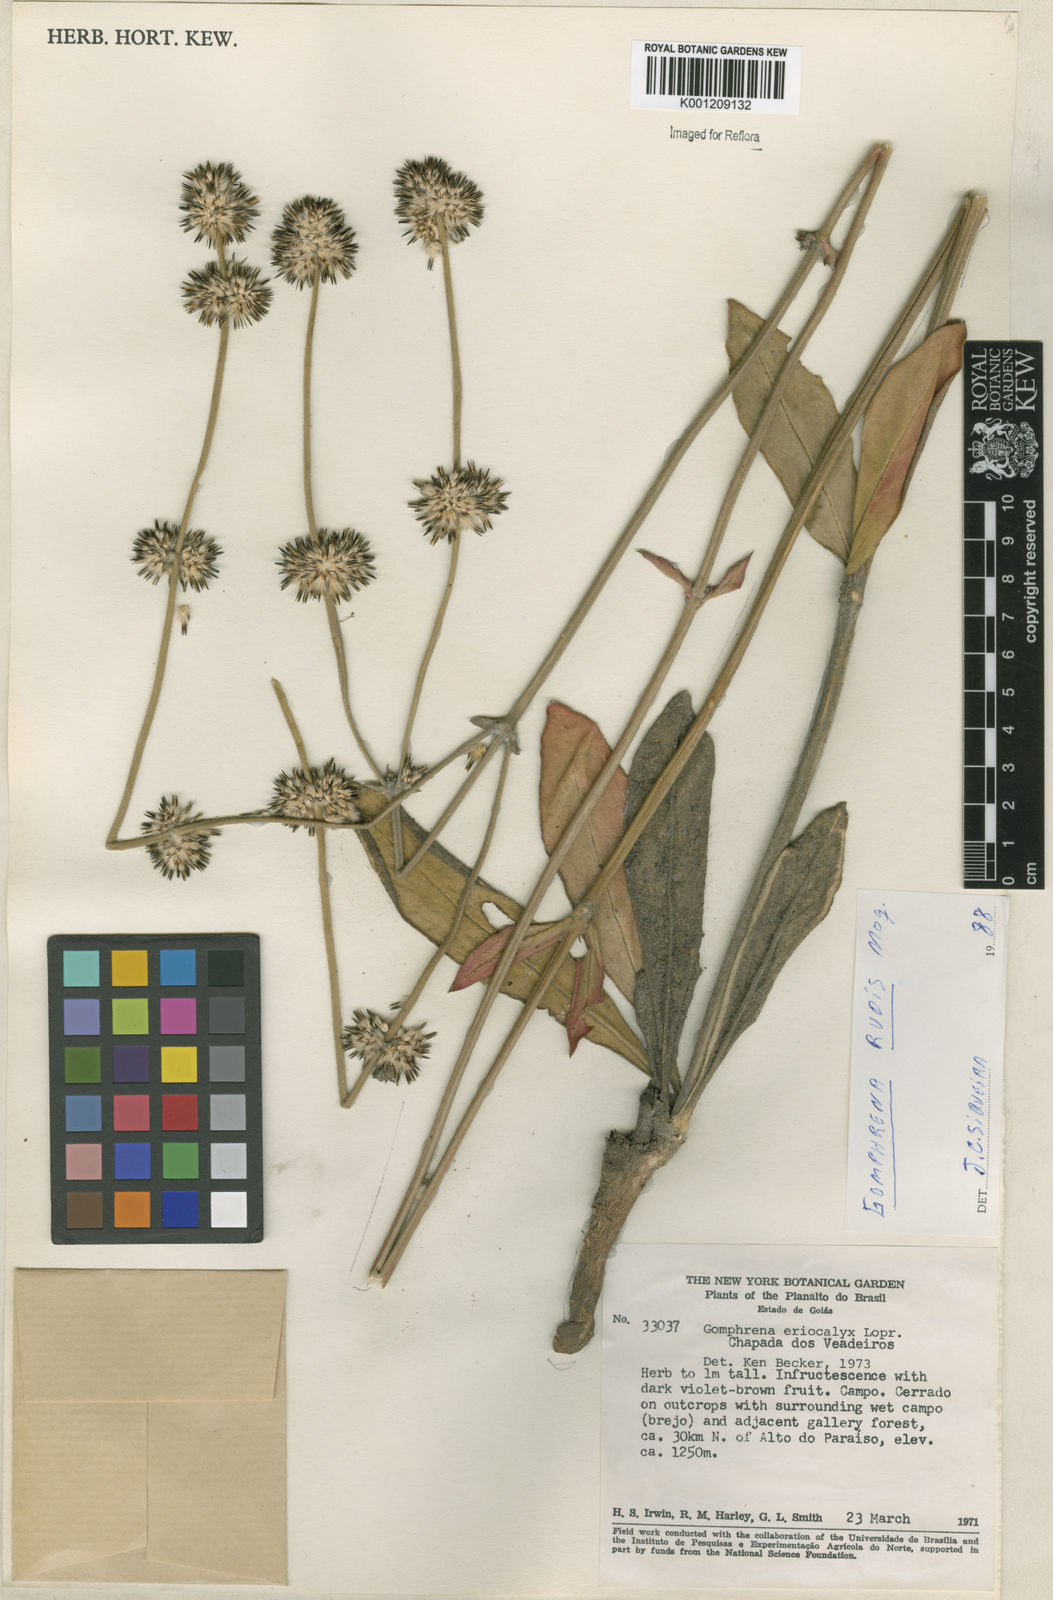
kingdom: Plantae
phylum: Tracheophyta
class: Magnoliopsida
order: Caryophyllales
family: Amaranthaceae
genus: Gomphrena
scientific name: Gomphrena incana
